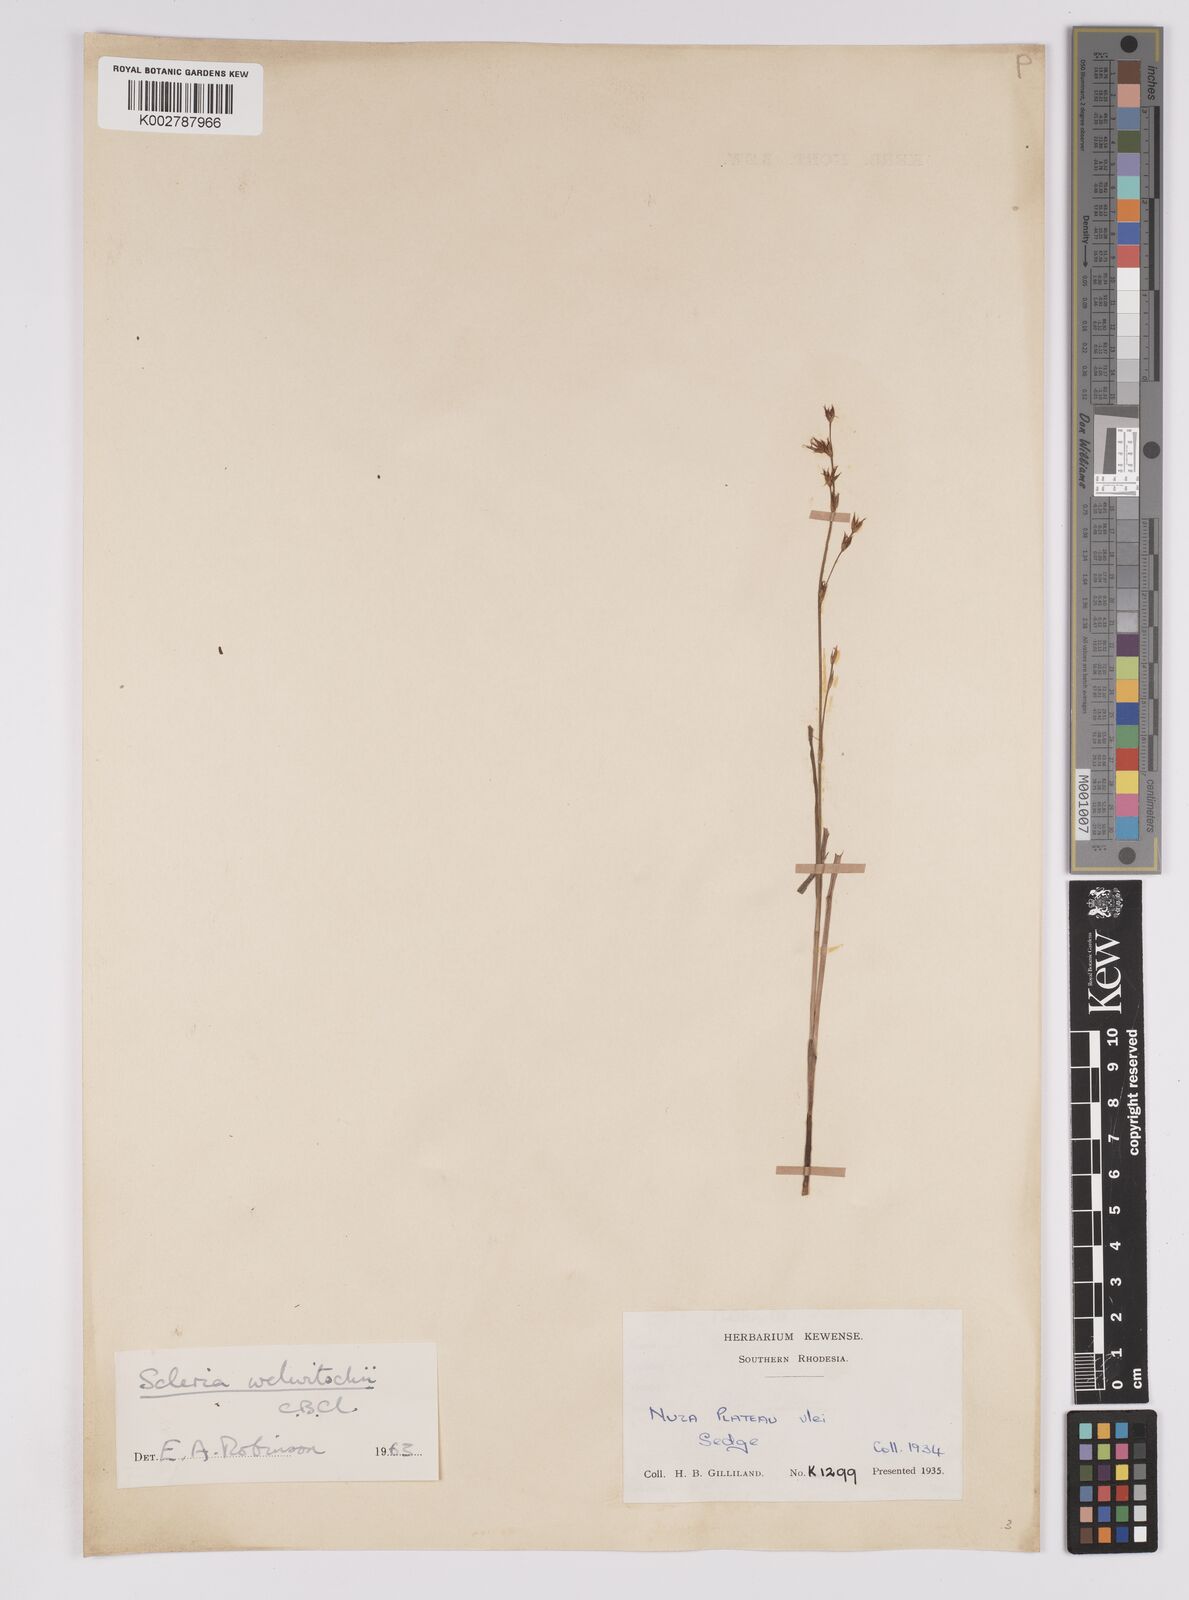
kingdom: Plantae
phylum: Tracheophyta
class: Liliopsida
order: Poales
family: Cyperaceae
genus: Scleria
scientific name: Scleria welwitschii
